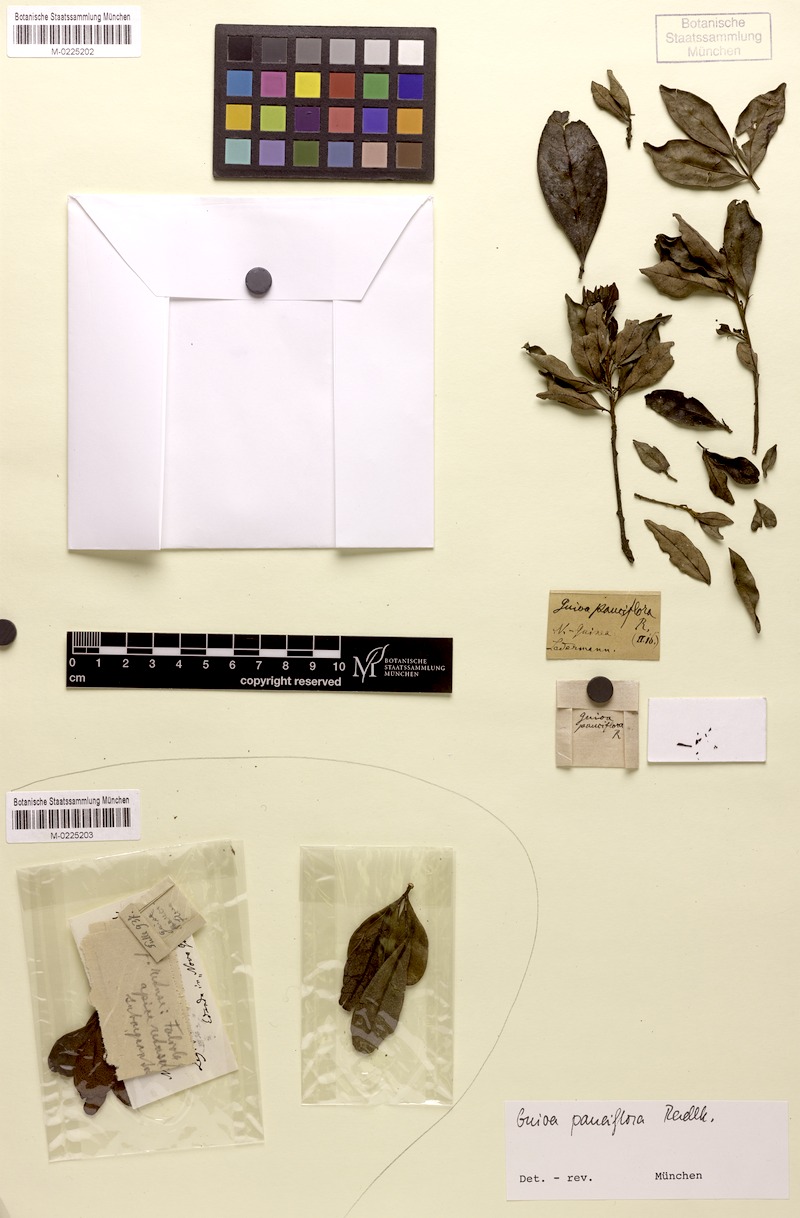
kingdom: Plantae
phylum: Tracheophyta
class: Magnoliopsida
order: Sapindales
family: Sapindaceae
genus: Guioa
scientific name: Guioa pauciflora
